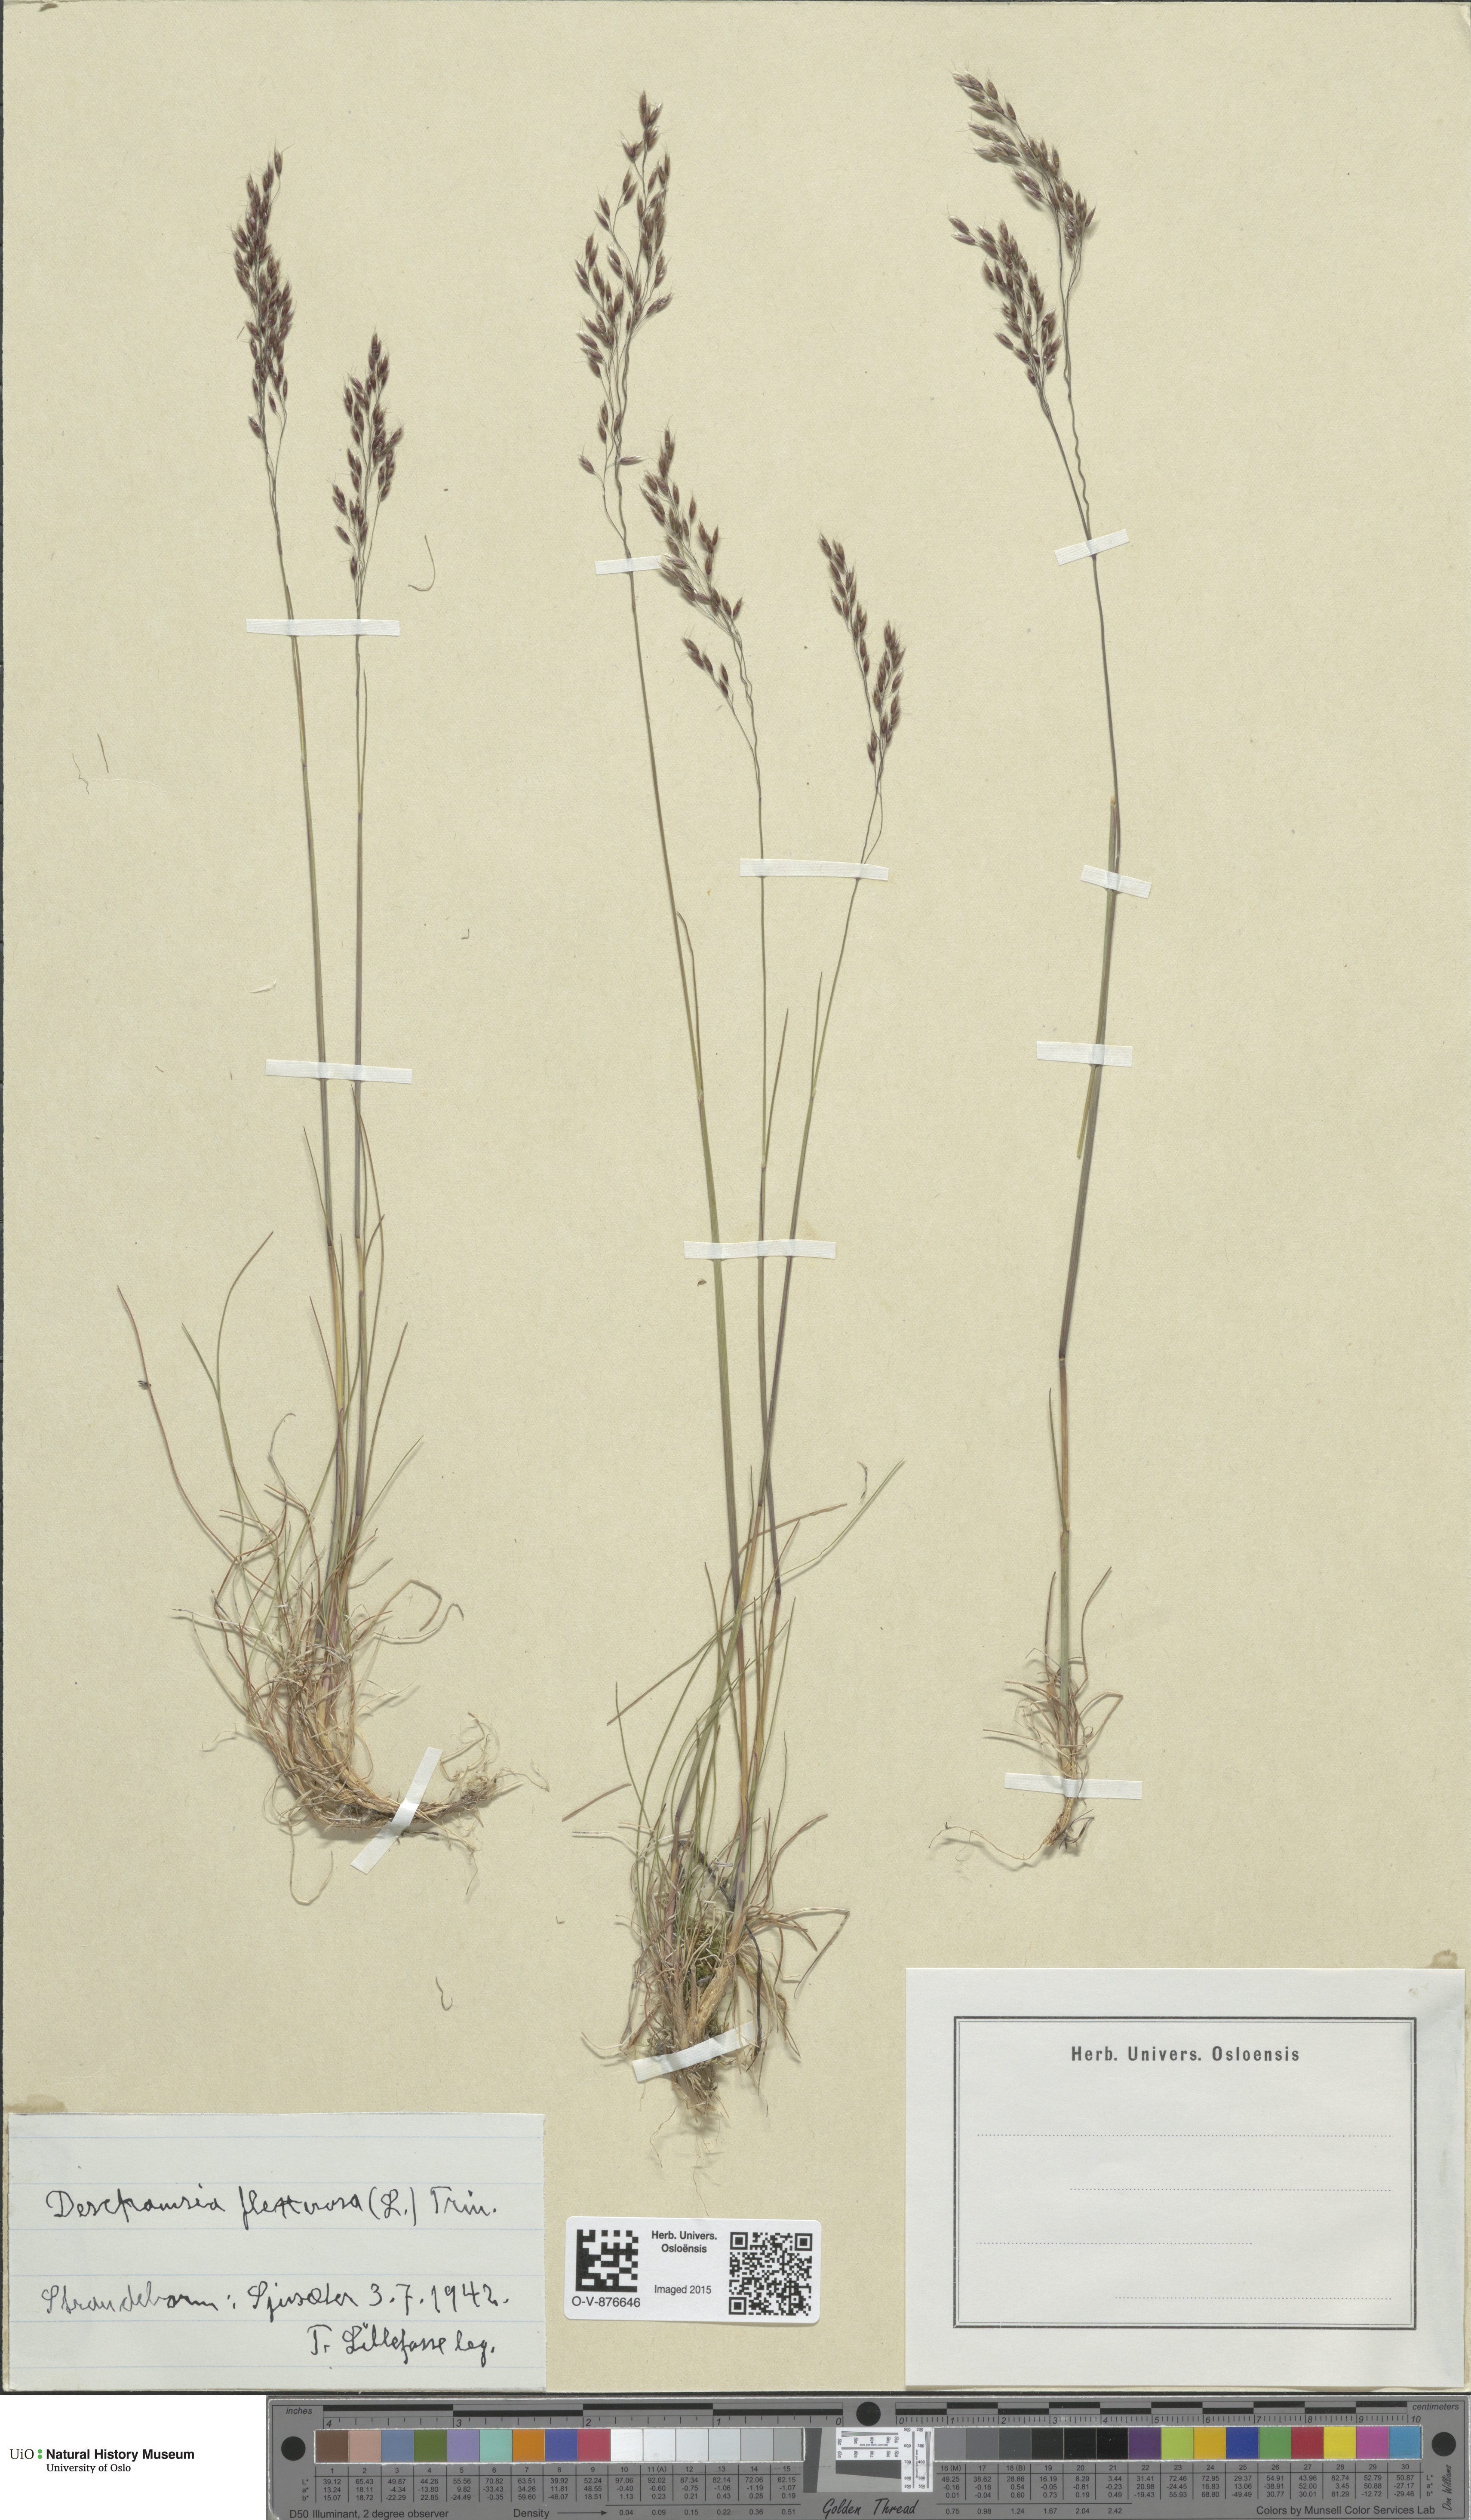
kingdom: Plantae
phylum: Tracheophyta
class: Liliopsida
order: Poales
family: Poaceae
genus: Avenella
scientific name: Avenella flexuosa
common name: Wavy hairgrass
